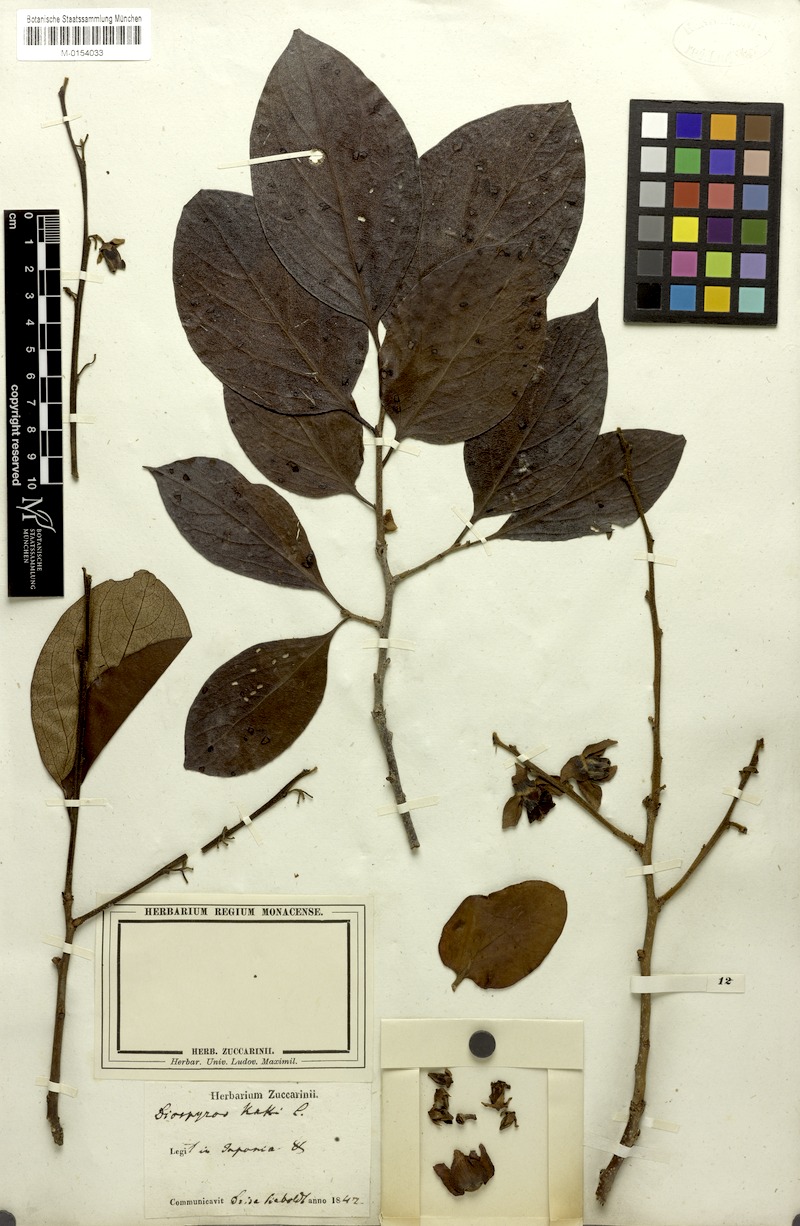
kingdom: Plantae
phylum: Tracheophyta
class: Magnoliopsida
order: Ericales
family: Ebenaceae
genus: Diospyros
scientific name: Diospyros kaki
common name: Persimmon
